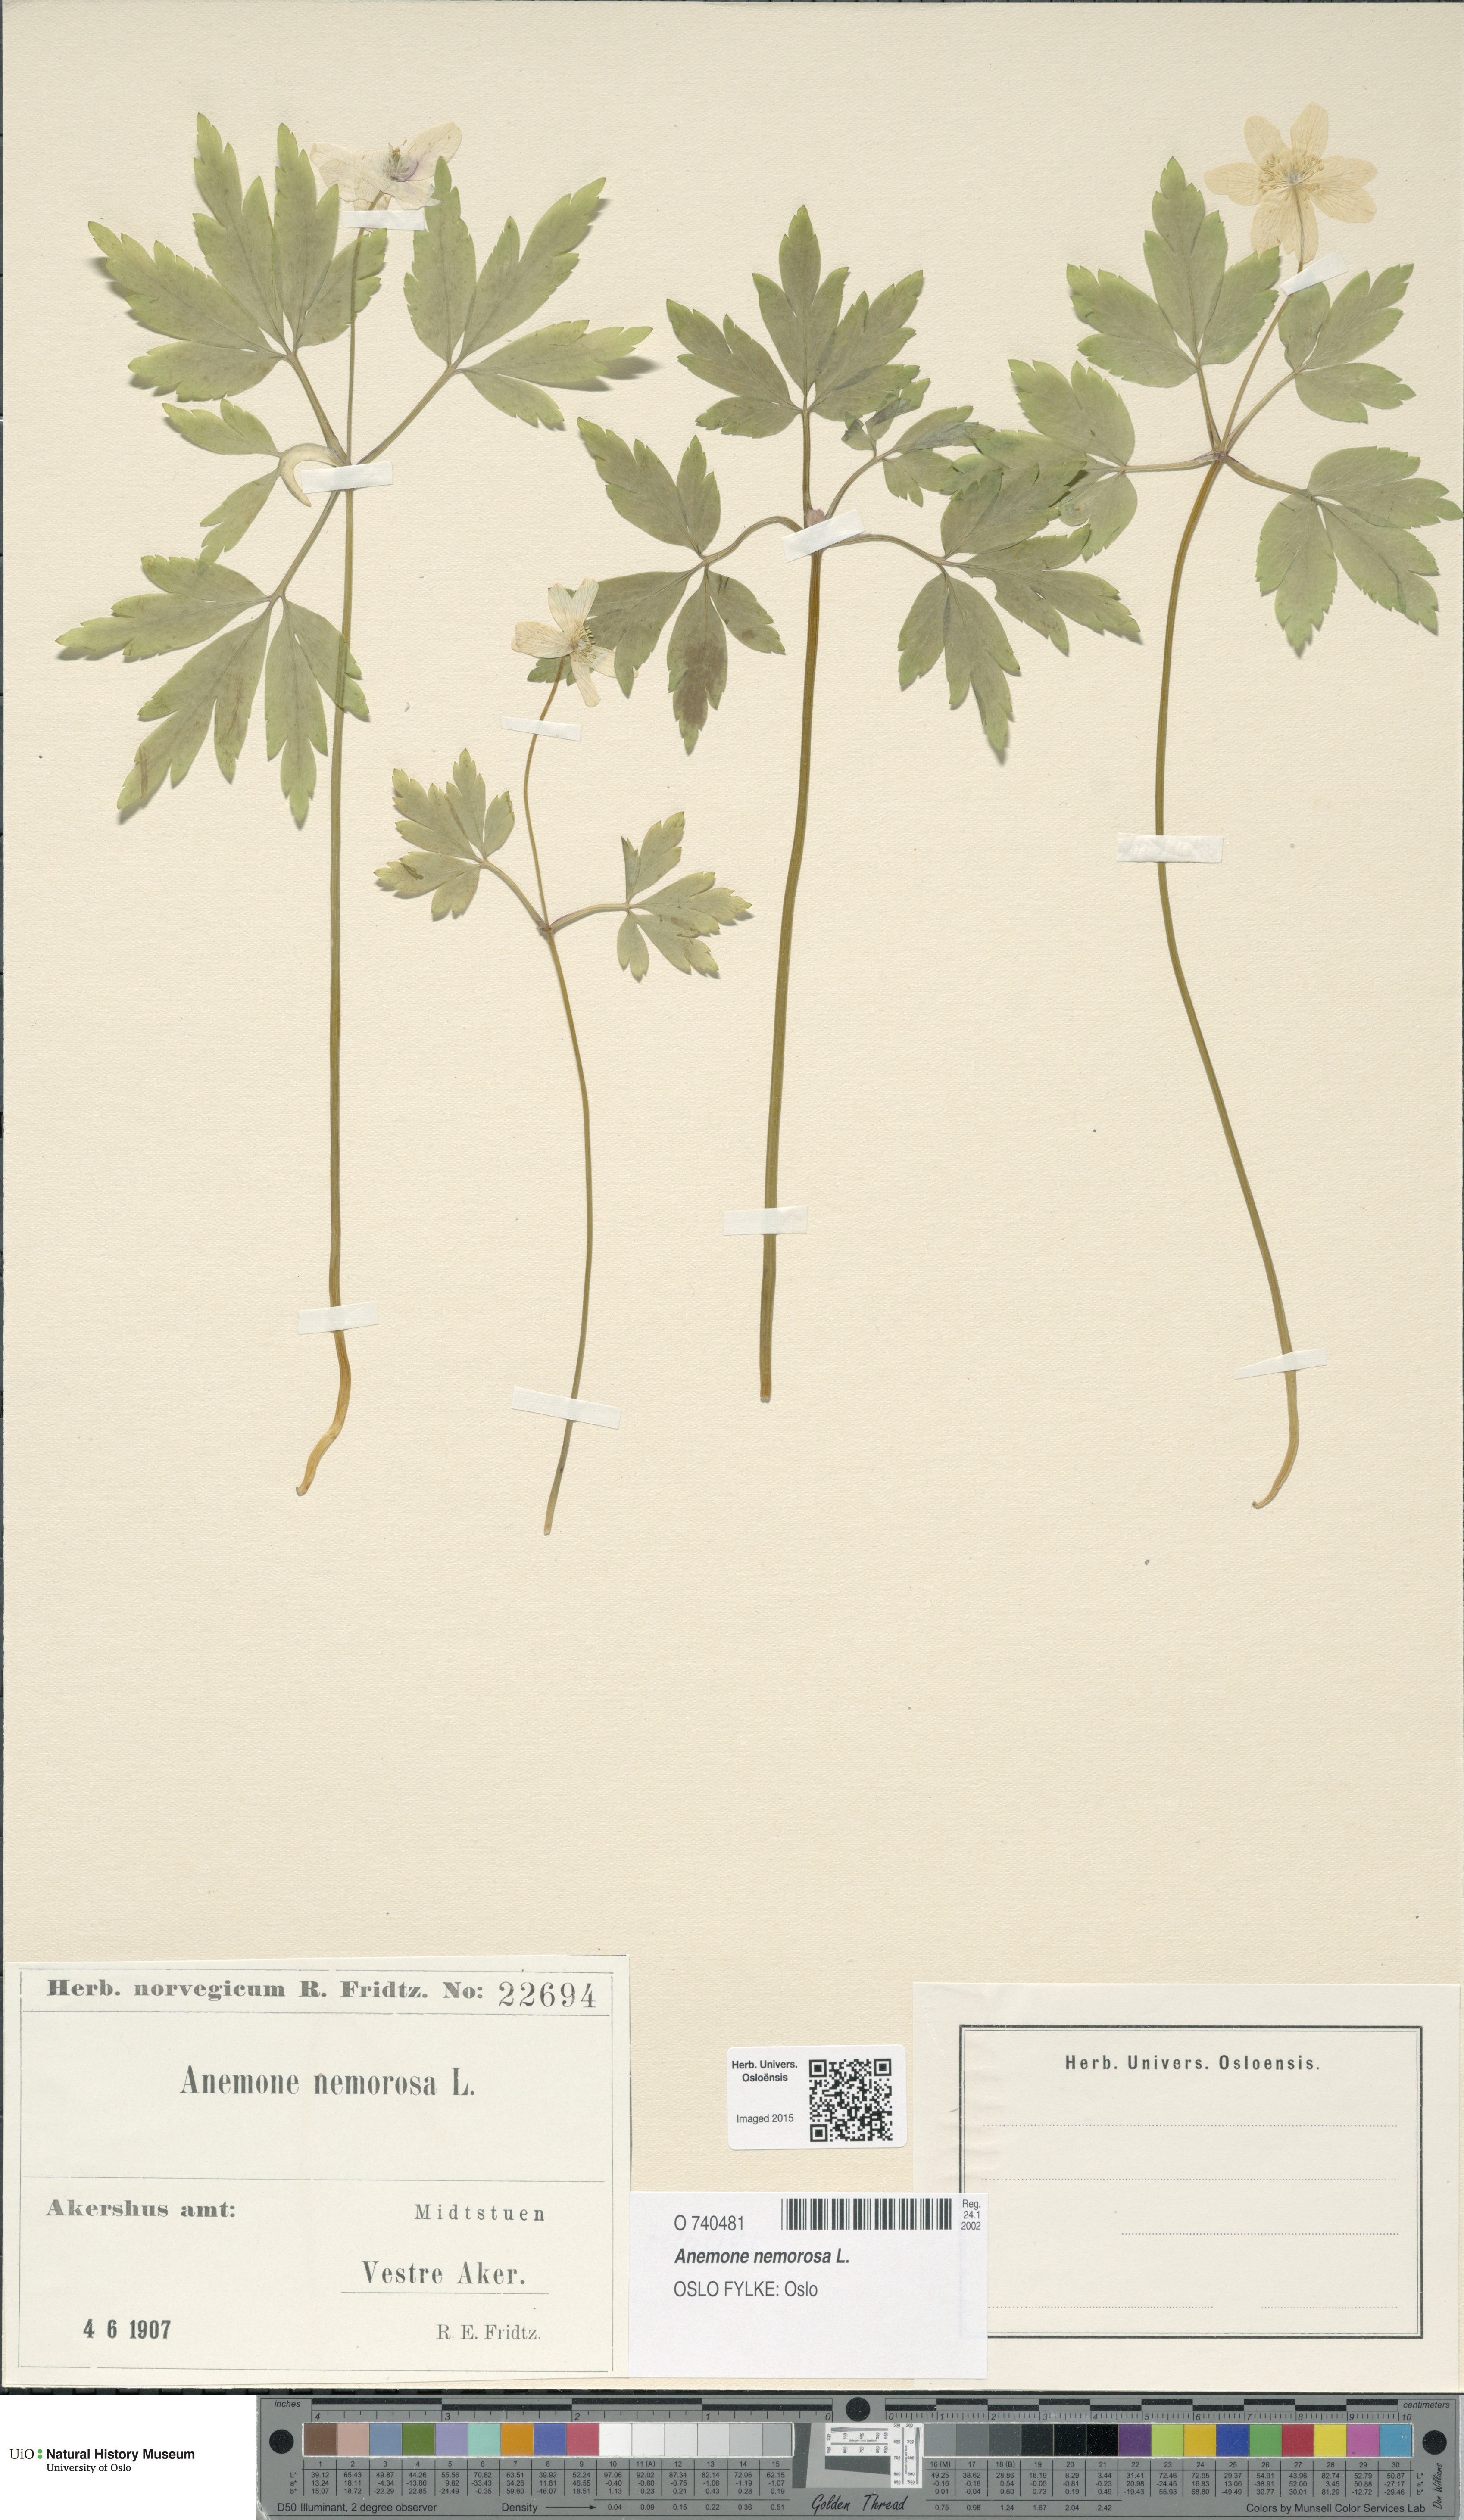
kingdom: Plantae
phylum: Tracheophyta
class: Magnoliopsida
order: Ranunculales
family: Ranunculaceae
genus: Anemone
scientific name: Anemone nemorosa
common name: Wood anemone
